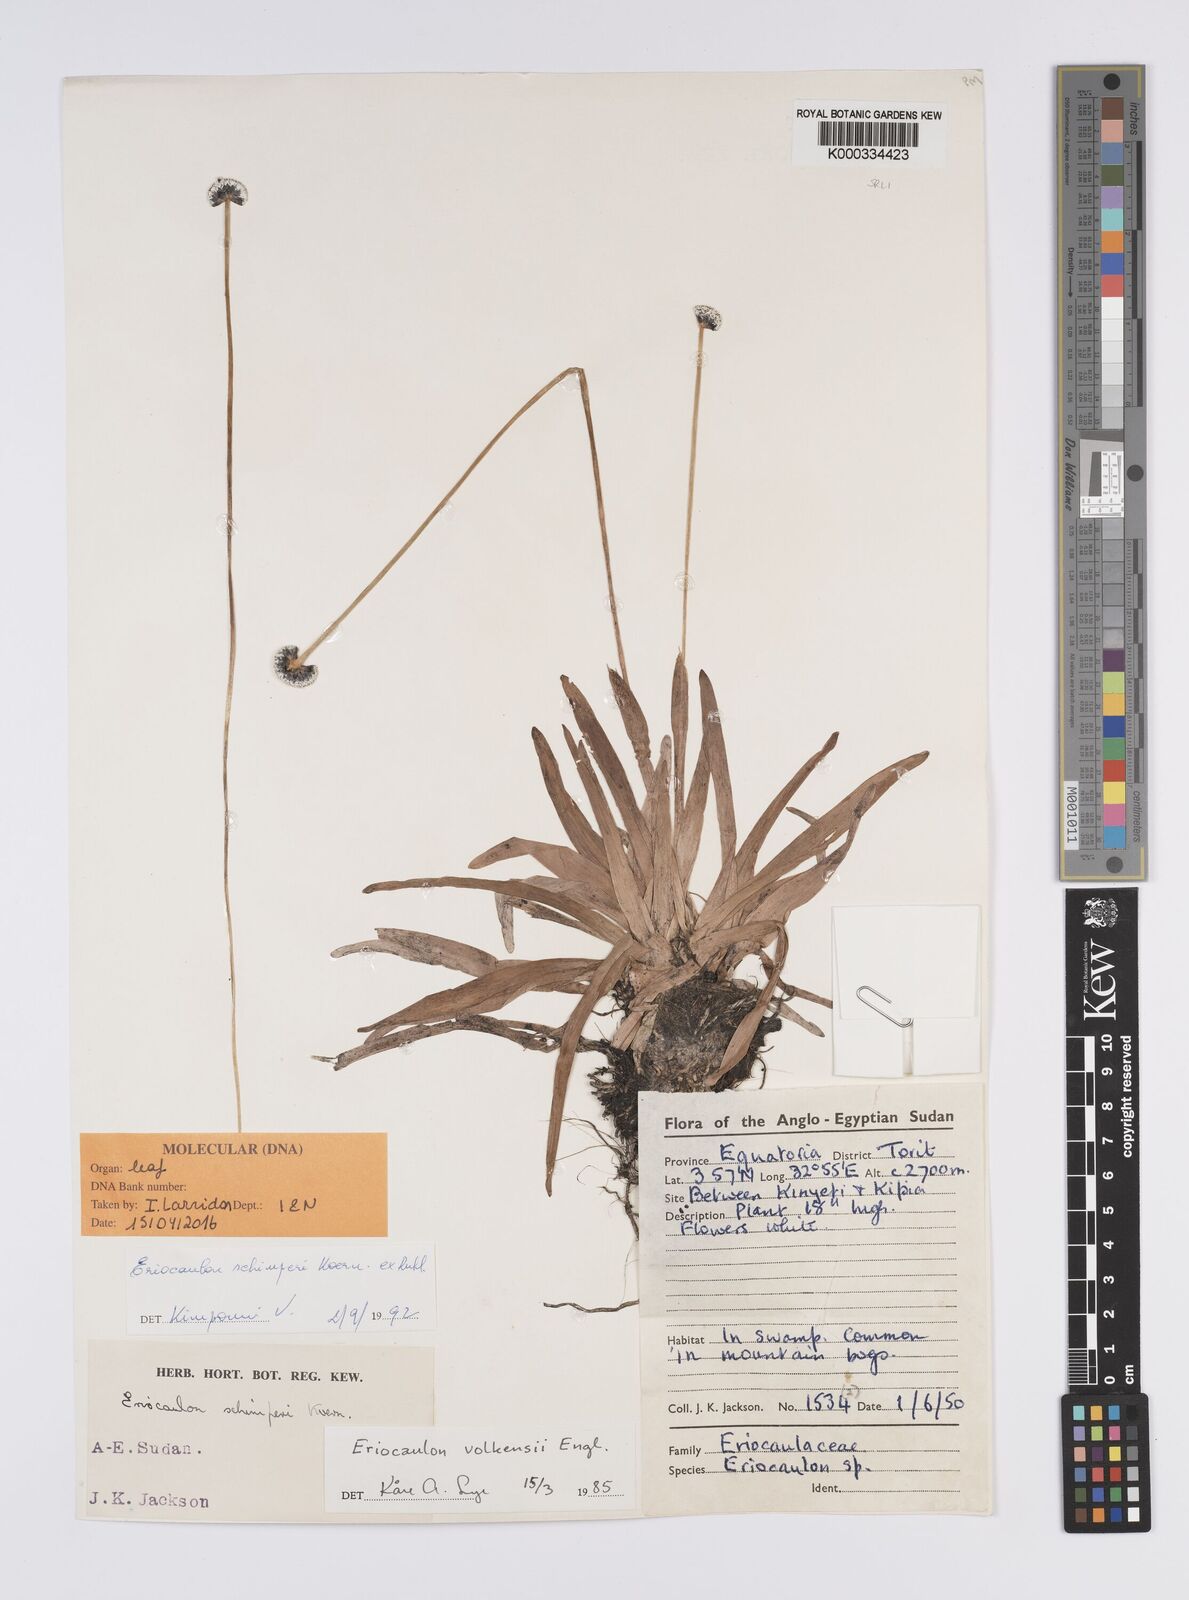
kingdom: Plantae
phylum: Tracheophyta
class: Liliopsida
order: Poales
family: Eriocaulaceae
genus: Eriocaulon
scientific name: Eriocaulon
